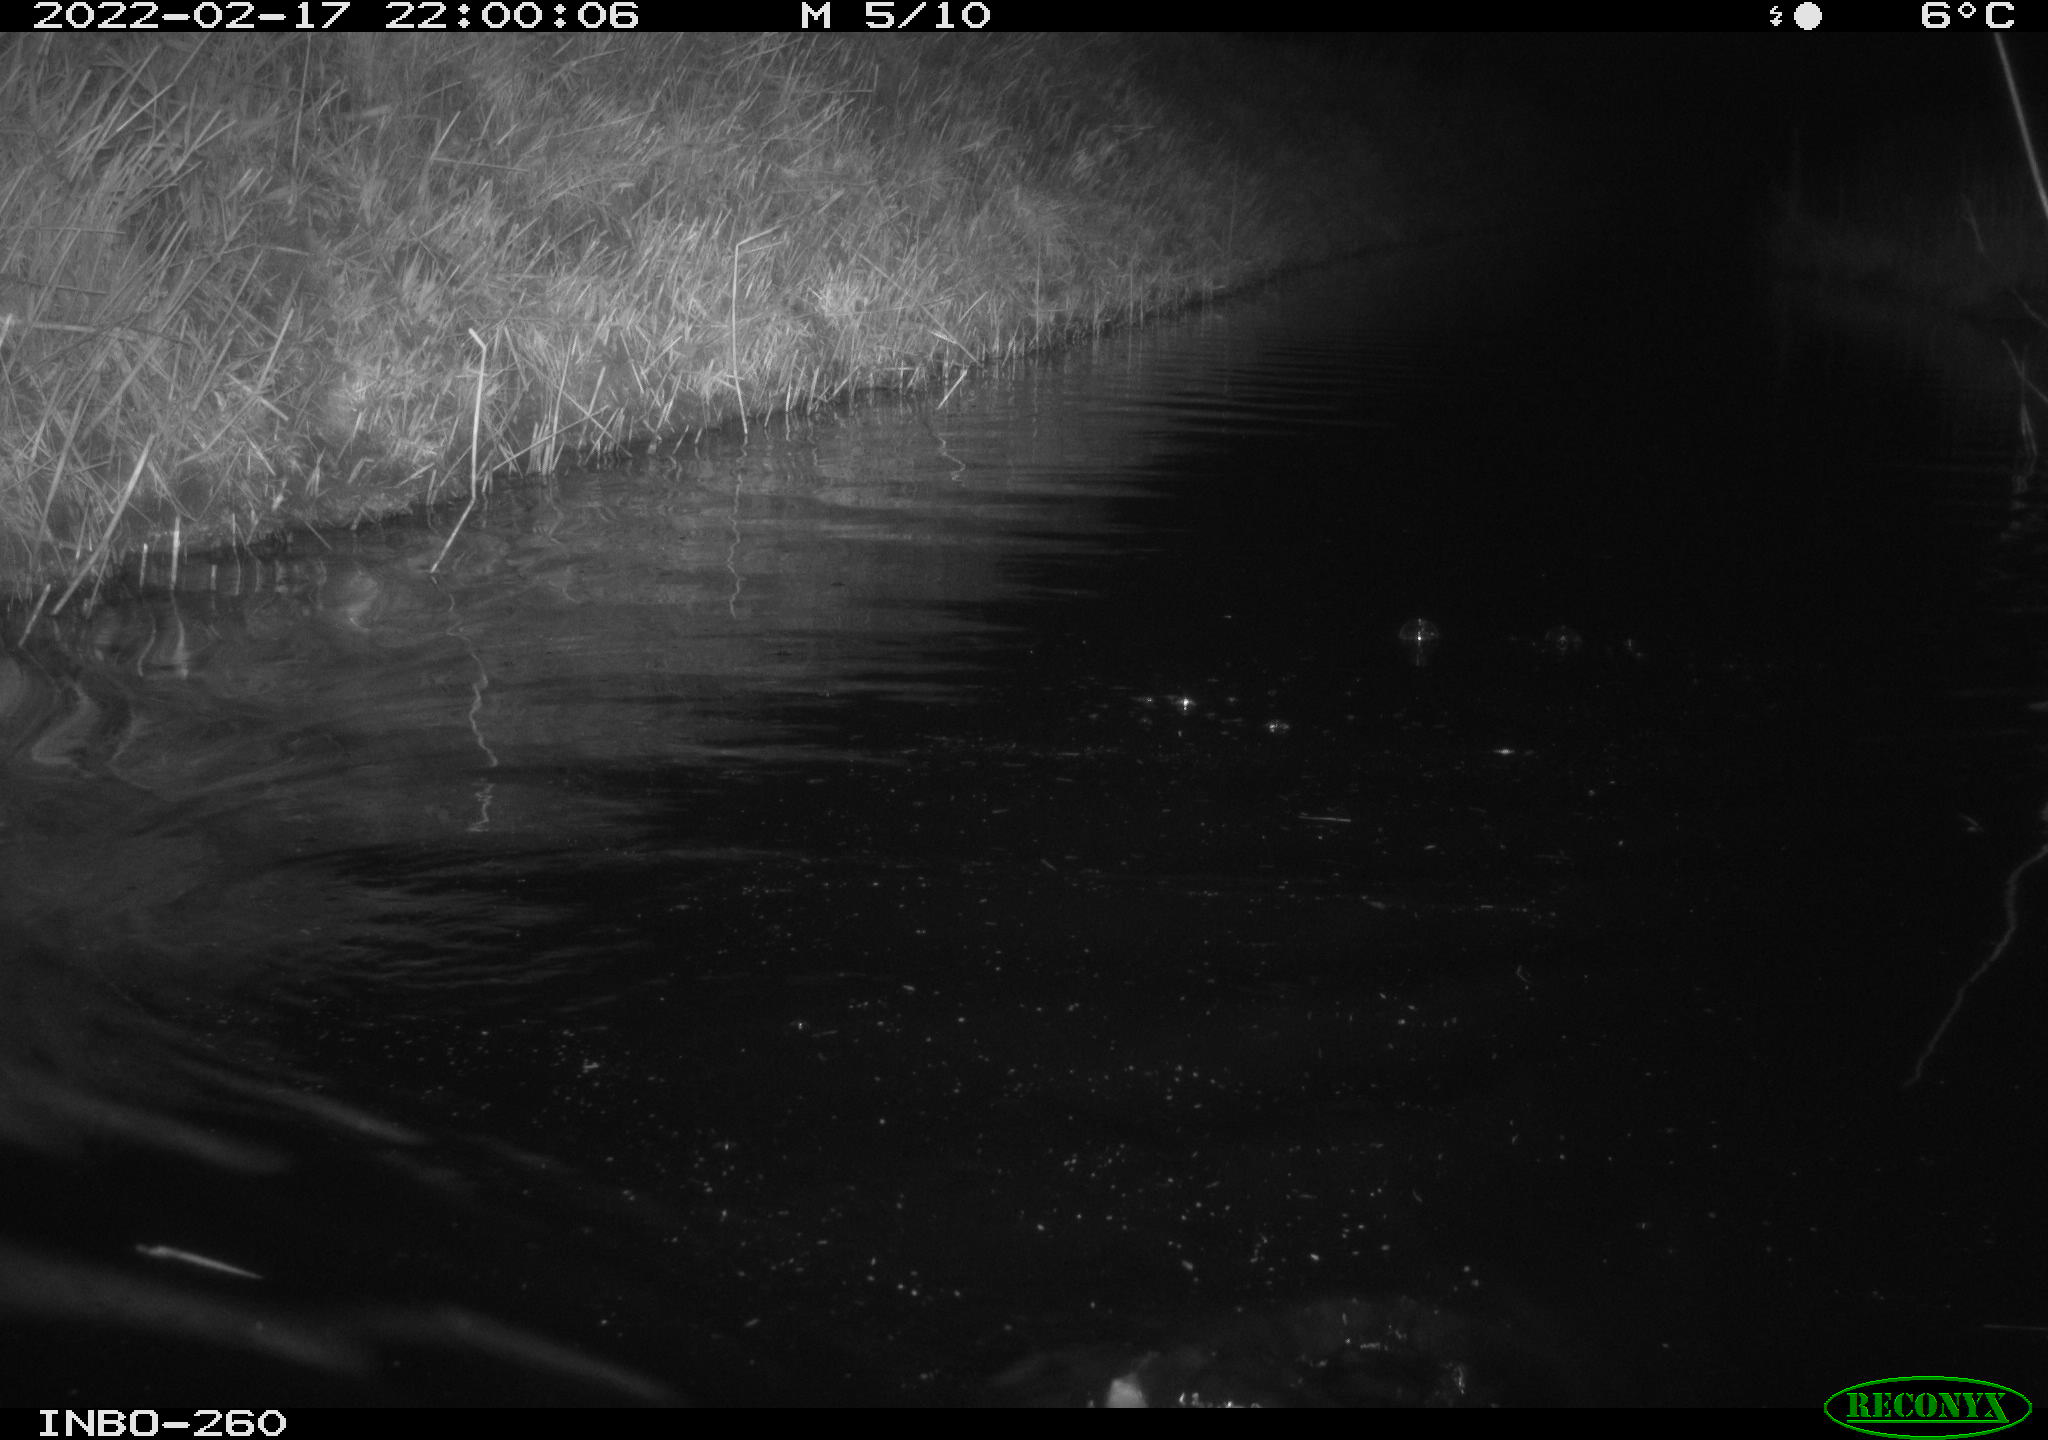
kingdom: Animalia
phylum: Chordata
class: Mammalia
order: Rodentia
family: Cricetidae
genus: Ondatra
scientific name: Ondatra zibethicus
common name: Muskrat
